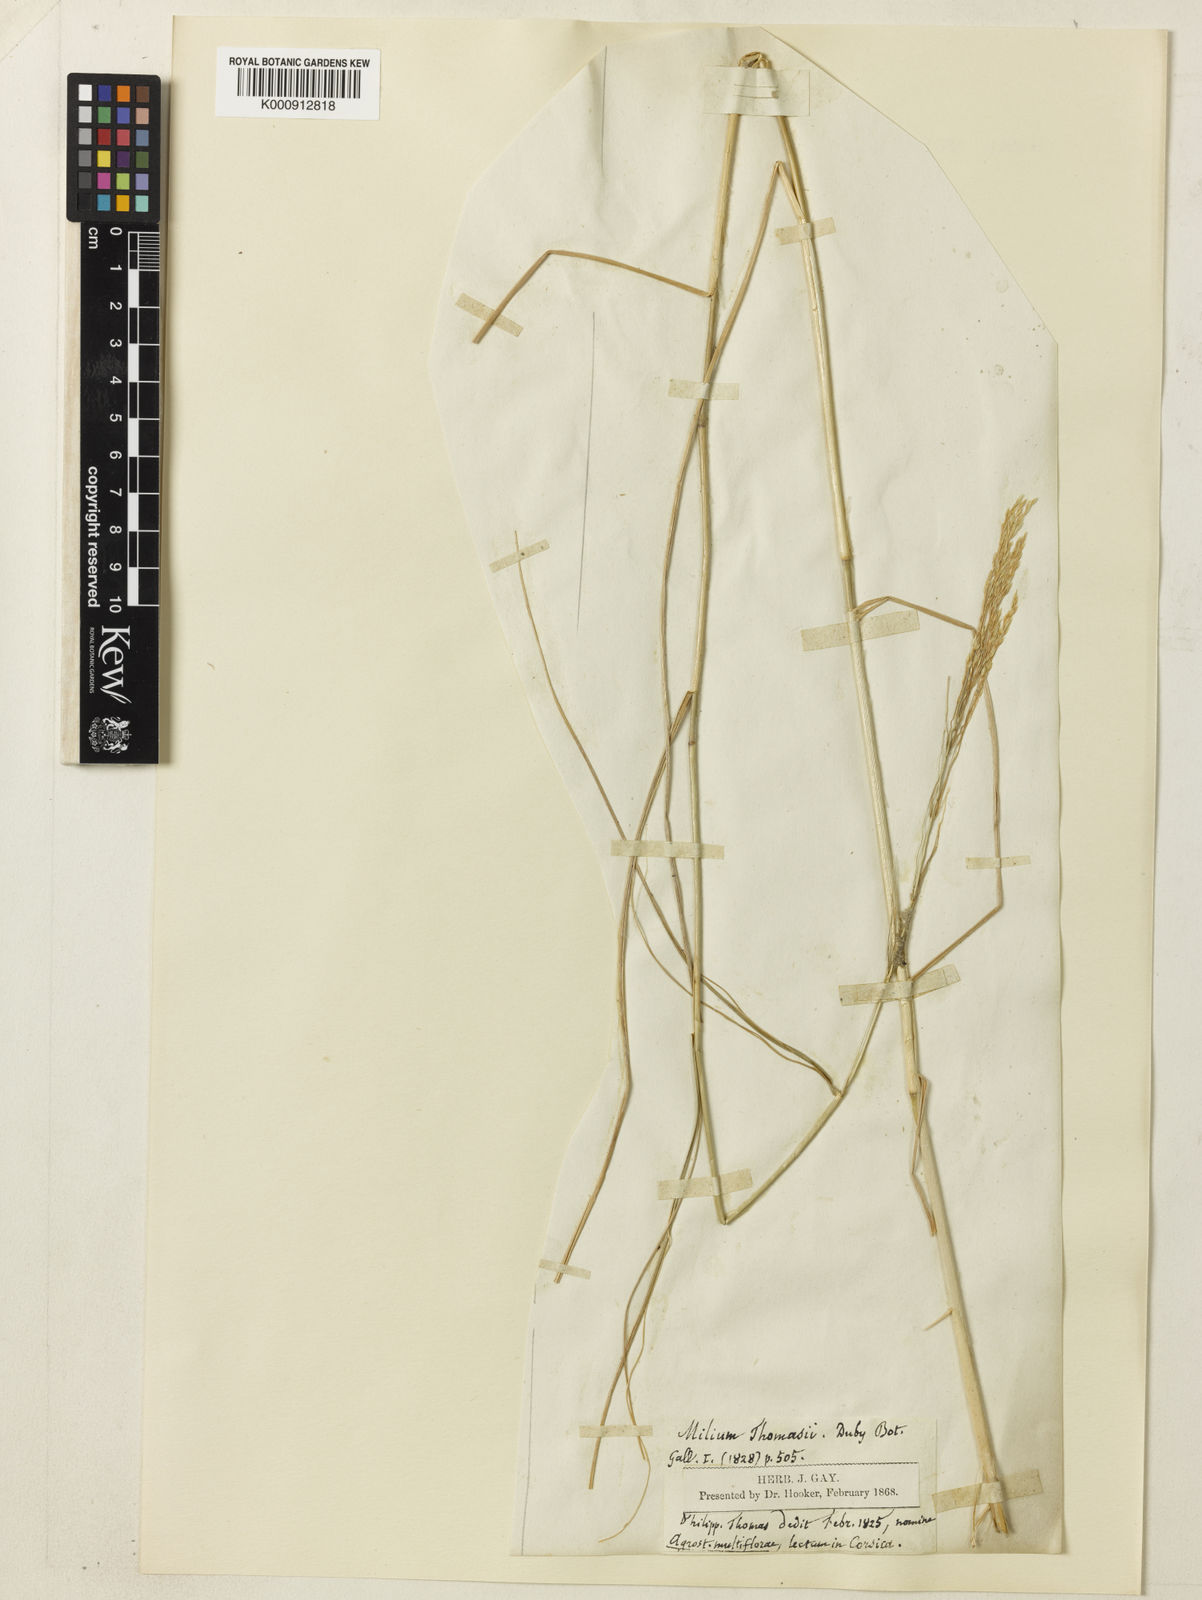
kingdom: Plantae
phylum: Tracheophyta
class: Liliopsida
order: Poales
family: Poaceae
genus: Oloptum
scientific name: Oloptum miliaceum
